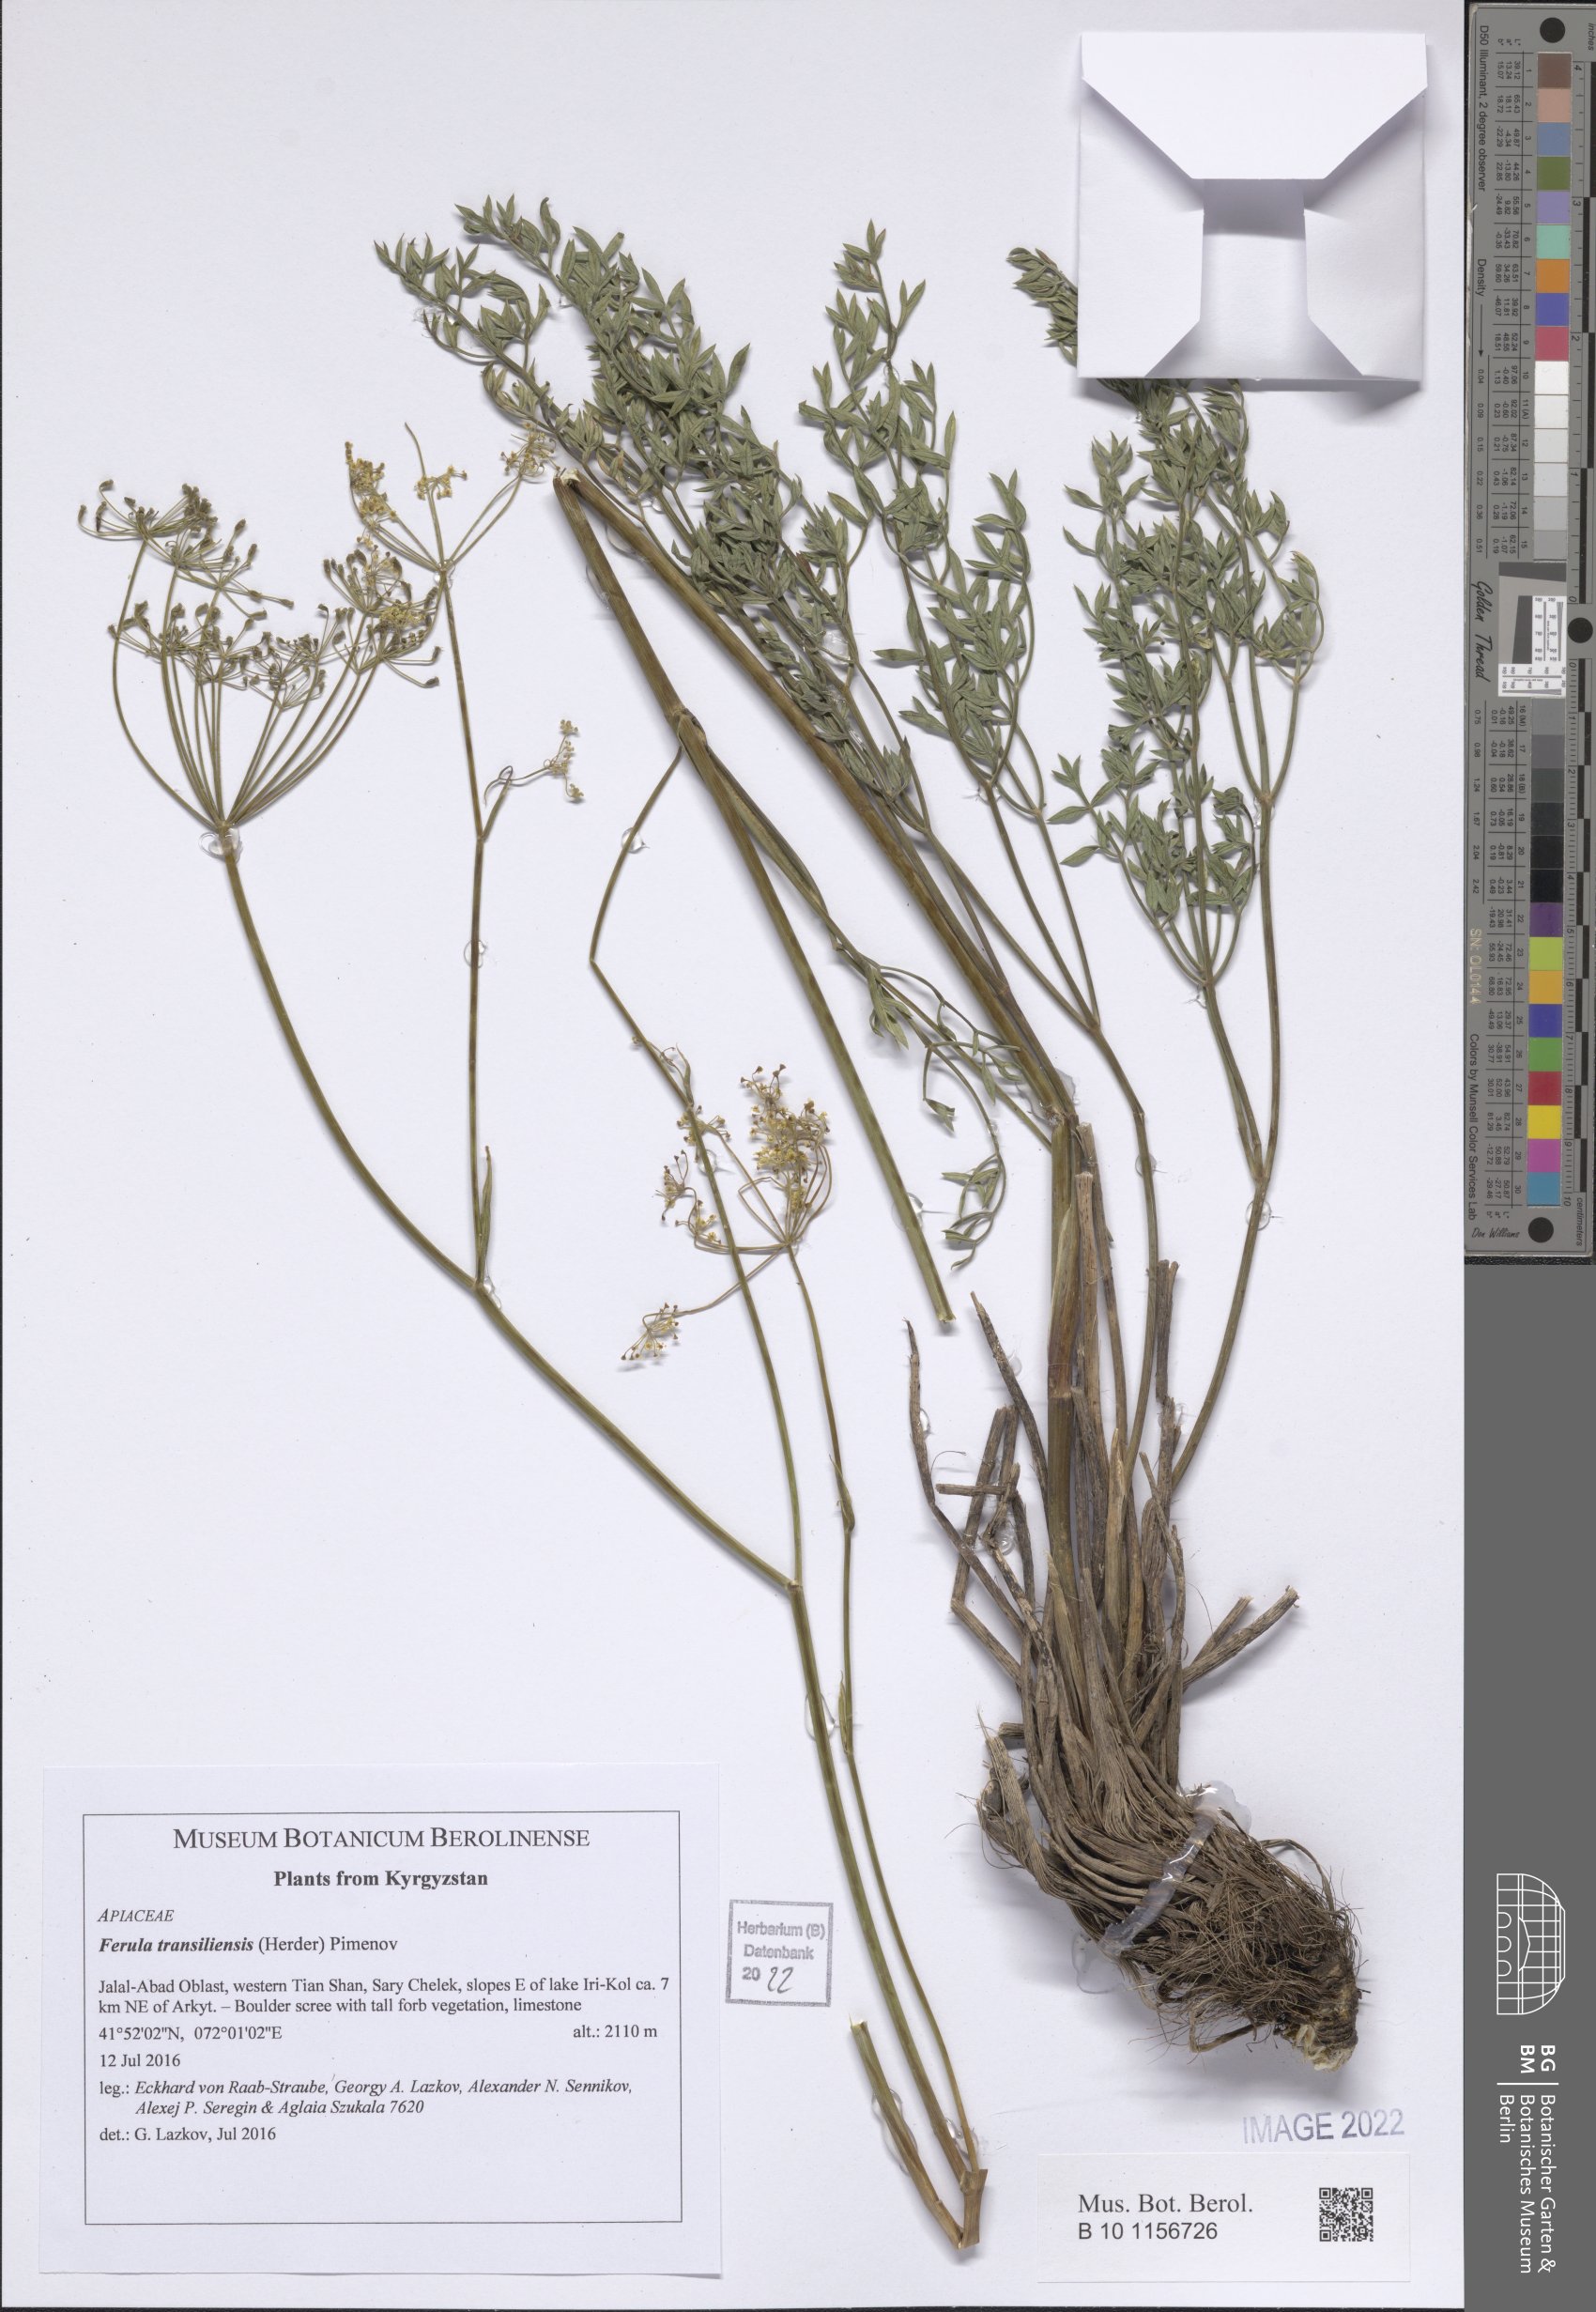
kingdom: Plantae
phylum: Tracheophyta
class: Magnoliopsida
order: Apiales
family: Apiaceae
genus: Ferula
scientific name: Ferula transiliensis
